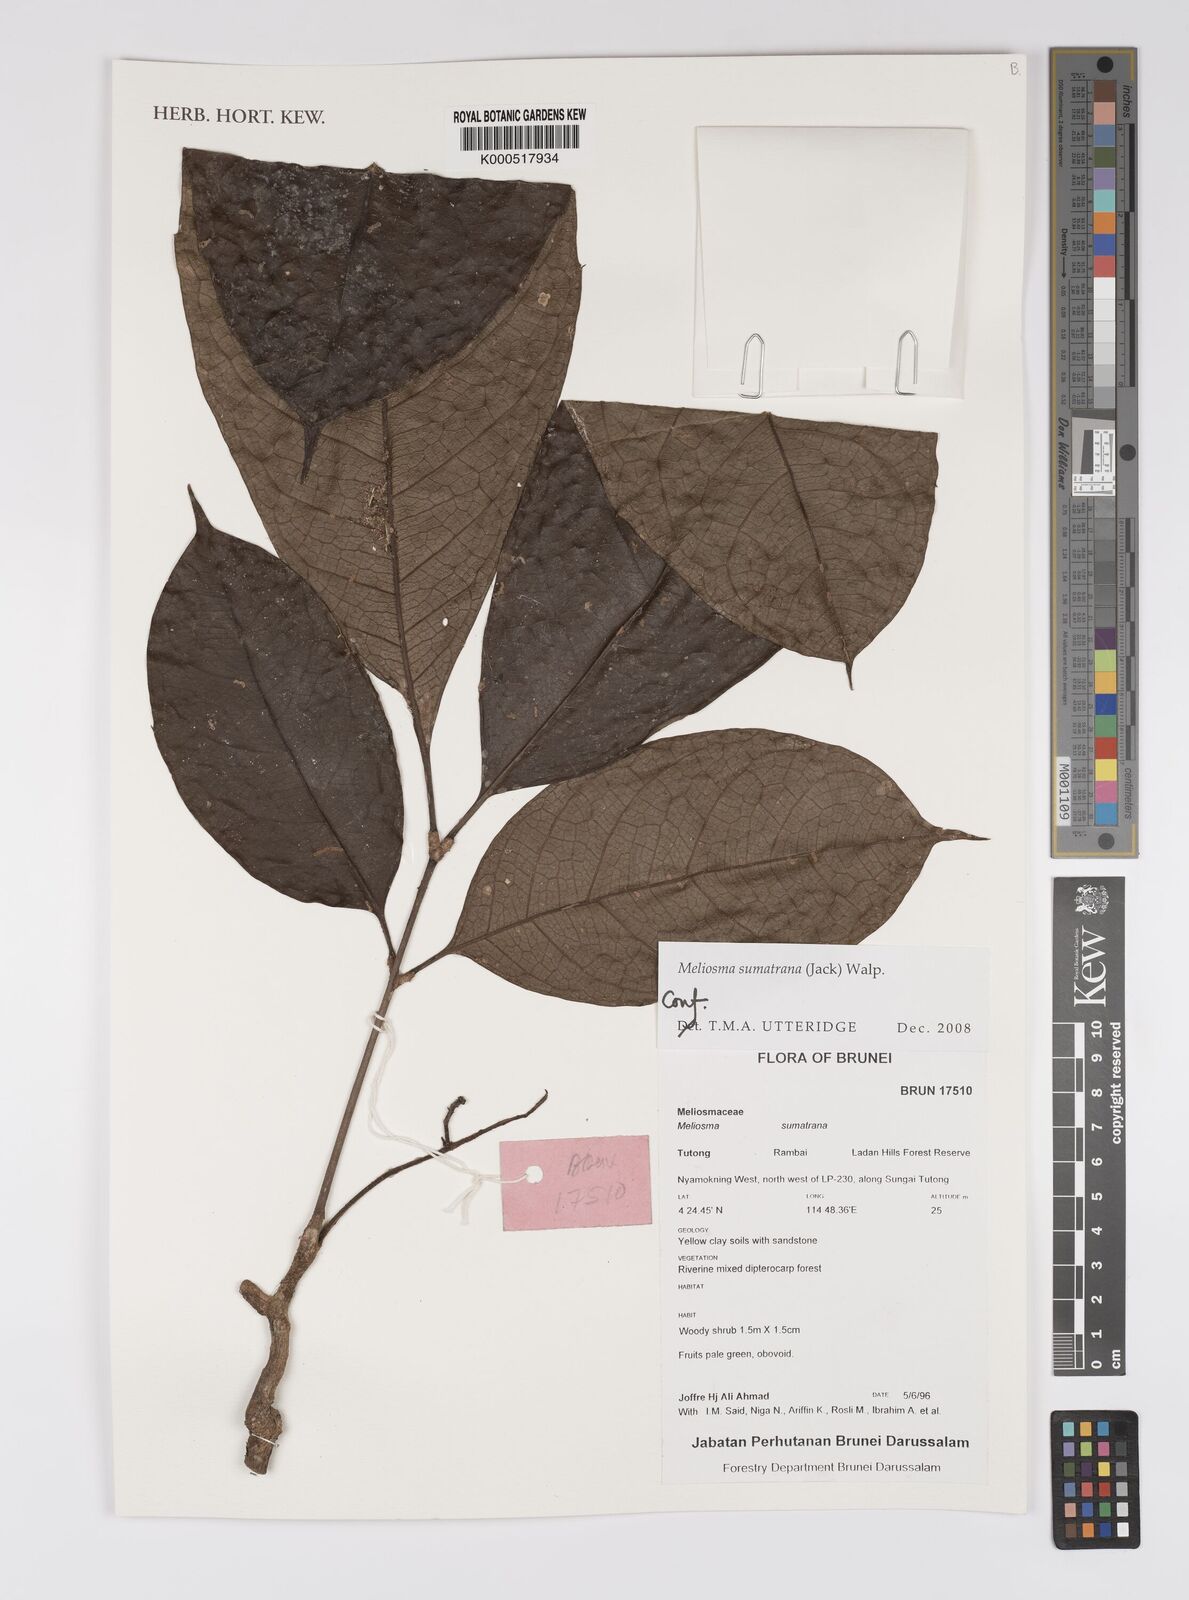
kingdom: Plantae
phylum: Tracheophyta
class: Magnoliopsida
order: Proteales
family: Sabiaceae
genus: Meliosma
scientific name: Meliosma sumatrana
